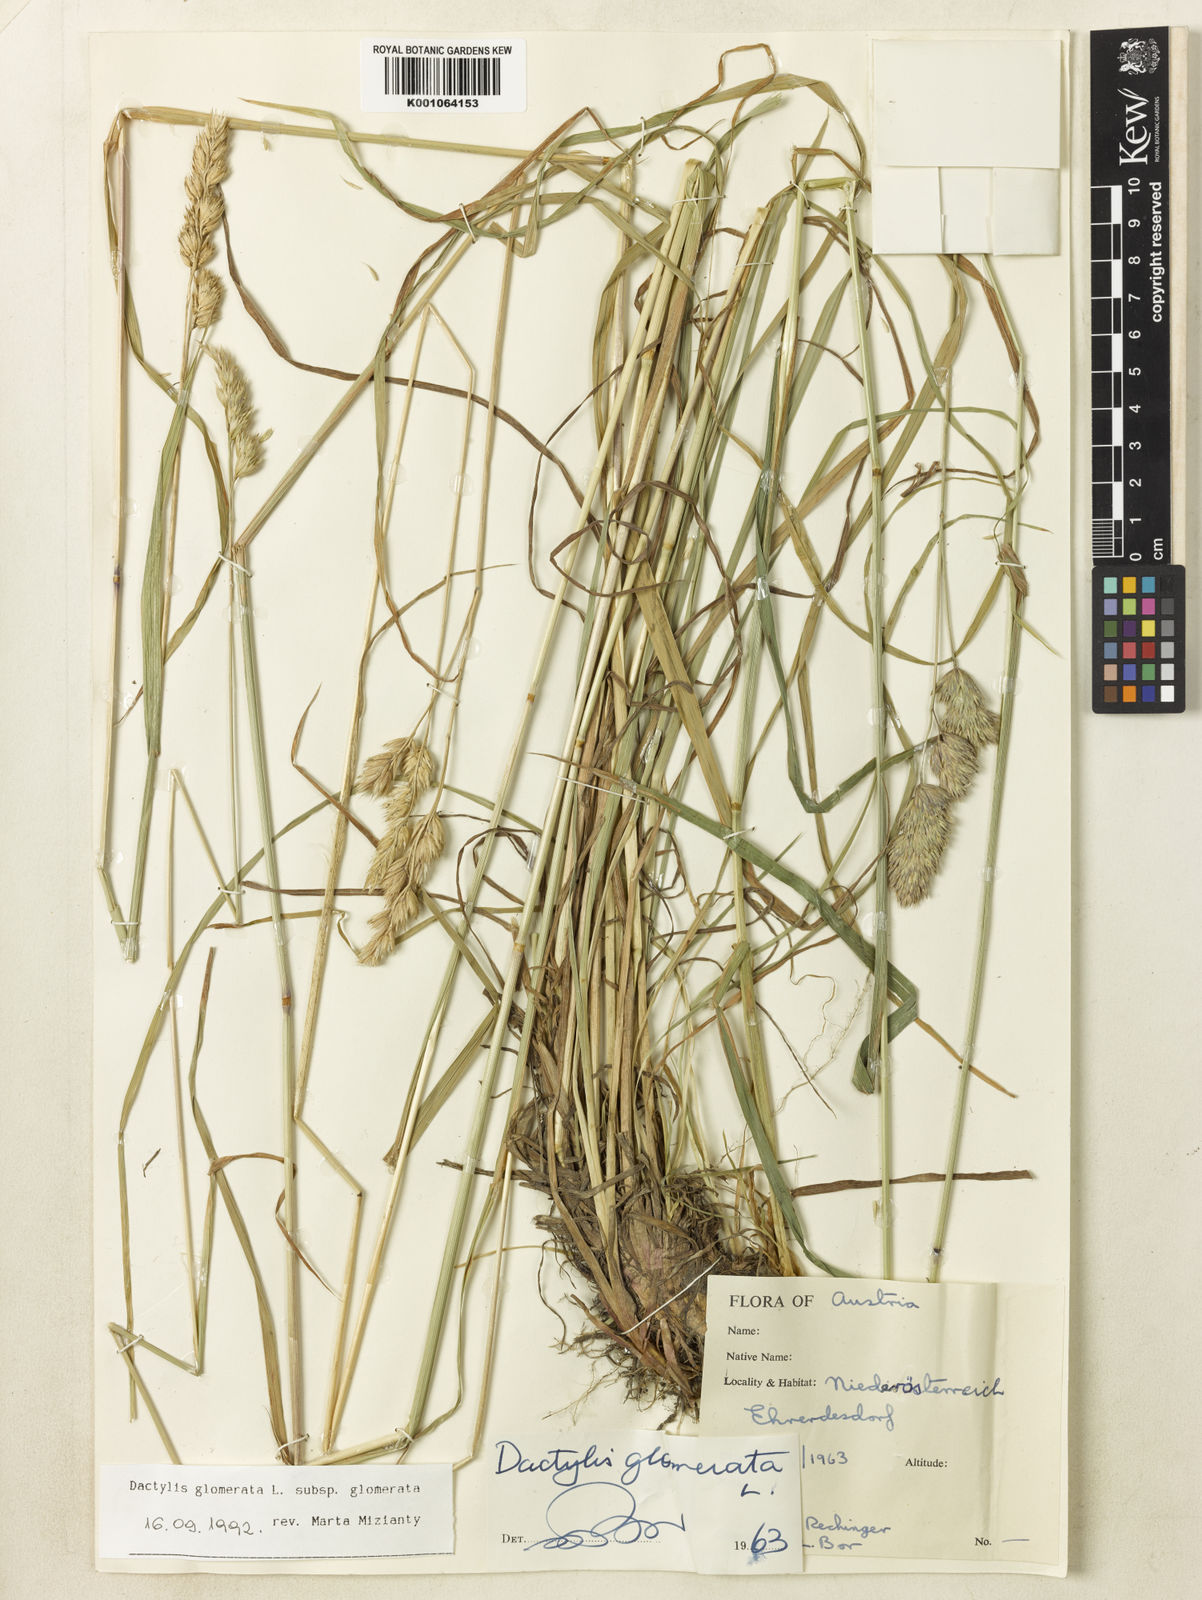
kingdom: Plantae
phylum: Tracheophyta
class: Liliopsida
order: Poales
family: Poaceae
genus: Dactylis
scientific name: Dactylis glomerata
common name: Orchardgrass
